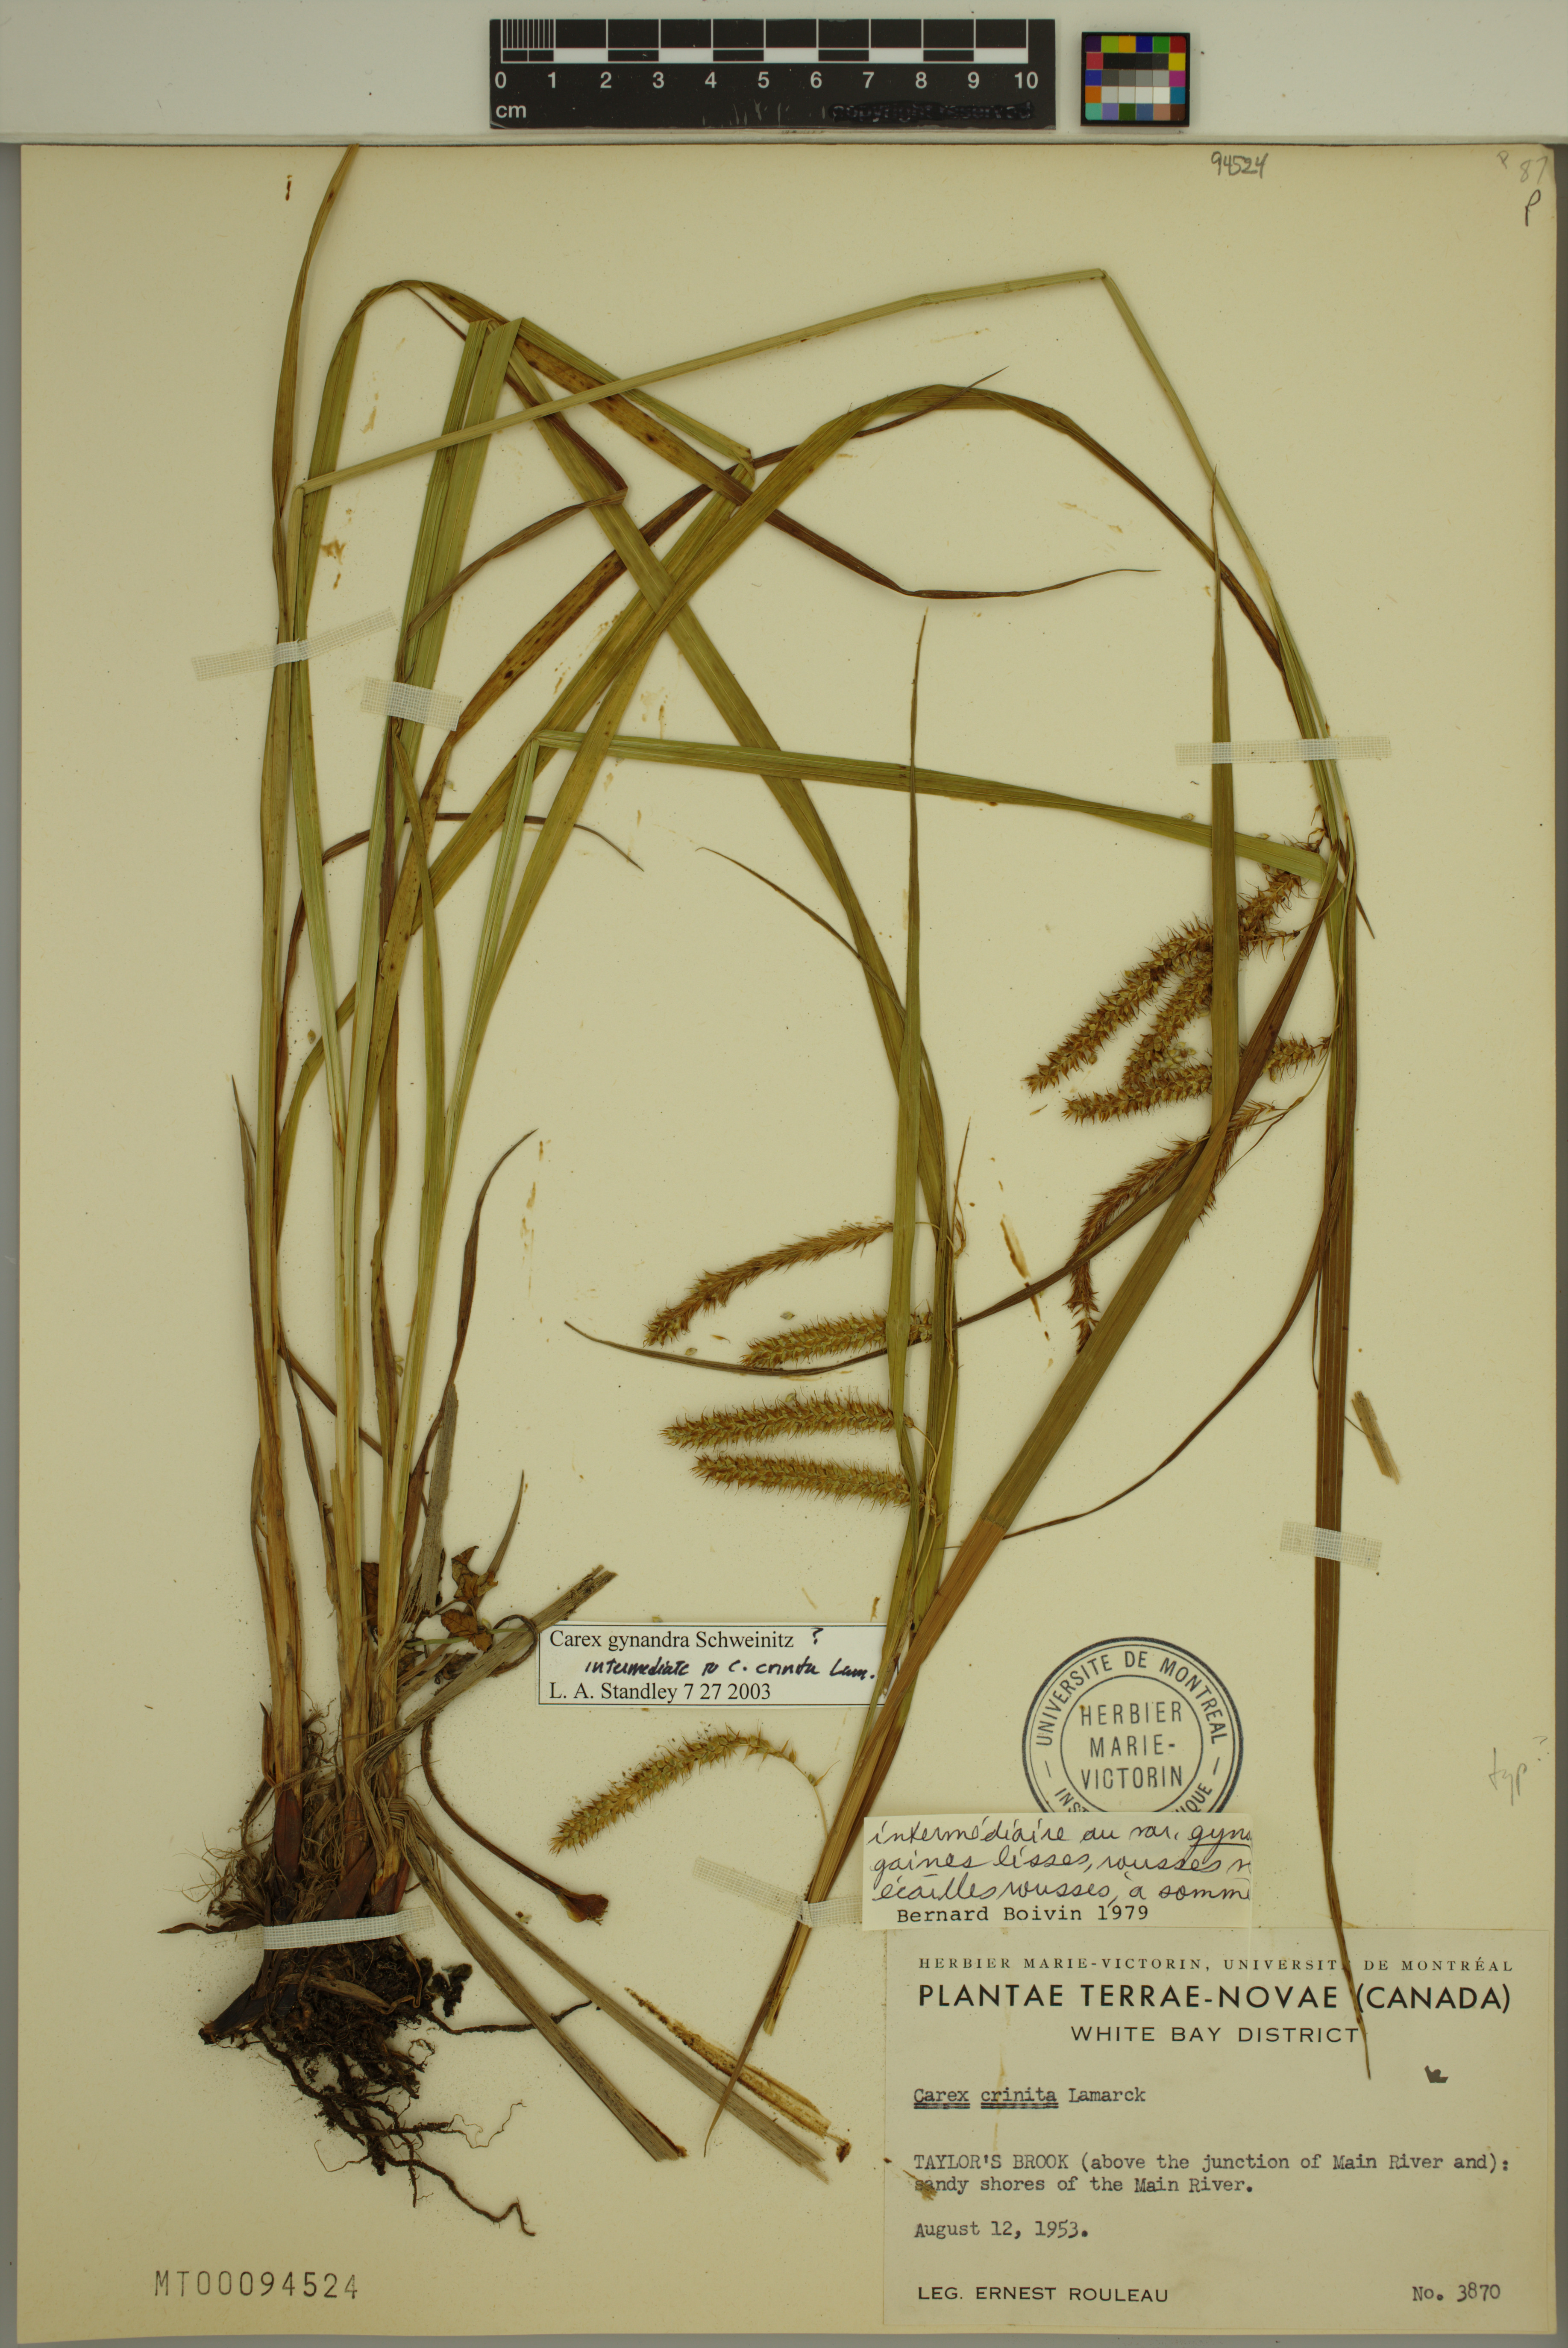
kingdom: Plantae
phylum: Tracheophyta
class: Liliopsida
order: Poales
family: Cyperaceae
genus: Carex
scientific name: Carex gynandra
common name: Nodding sedge
